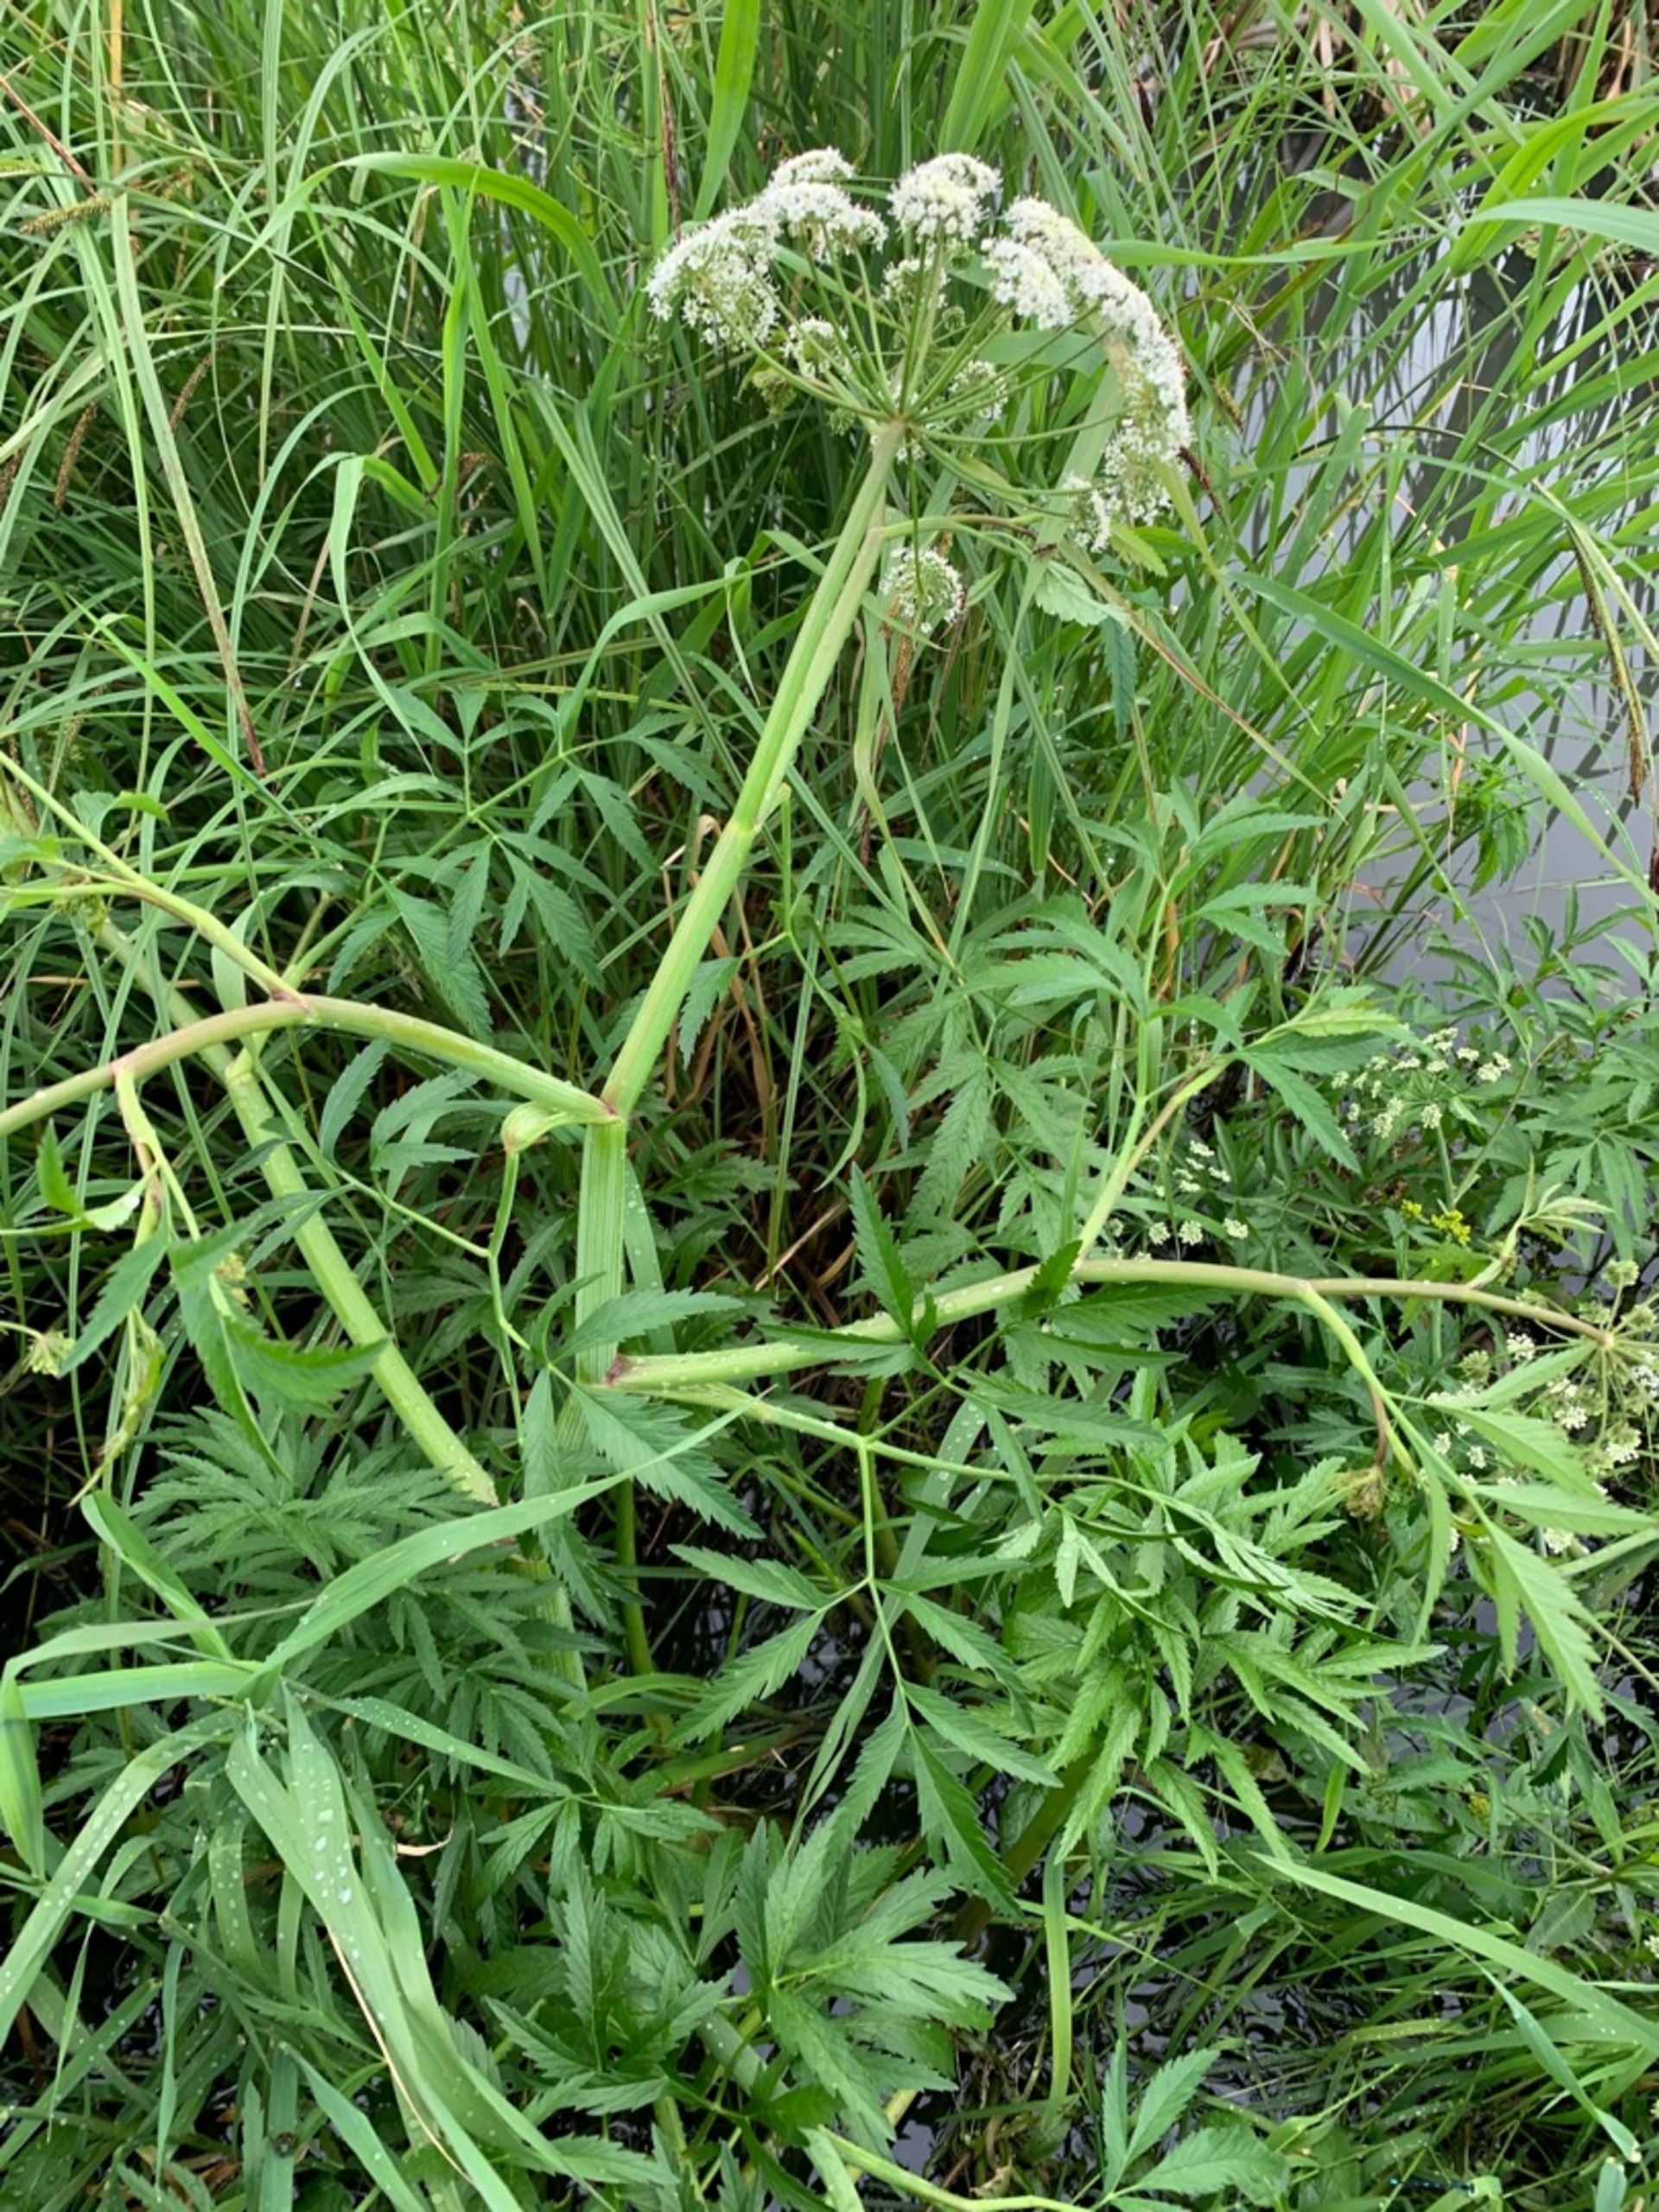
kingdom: Plantae
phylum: Tracheophyta
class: Magnoliopsida
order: Apiales
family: Apiaceae
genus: Cicuta
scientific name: Cicuta virosa
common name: Gifttyde
